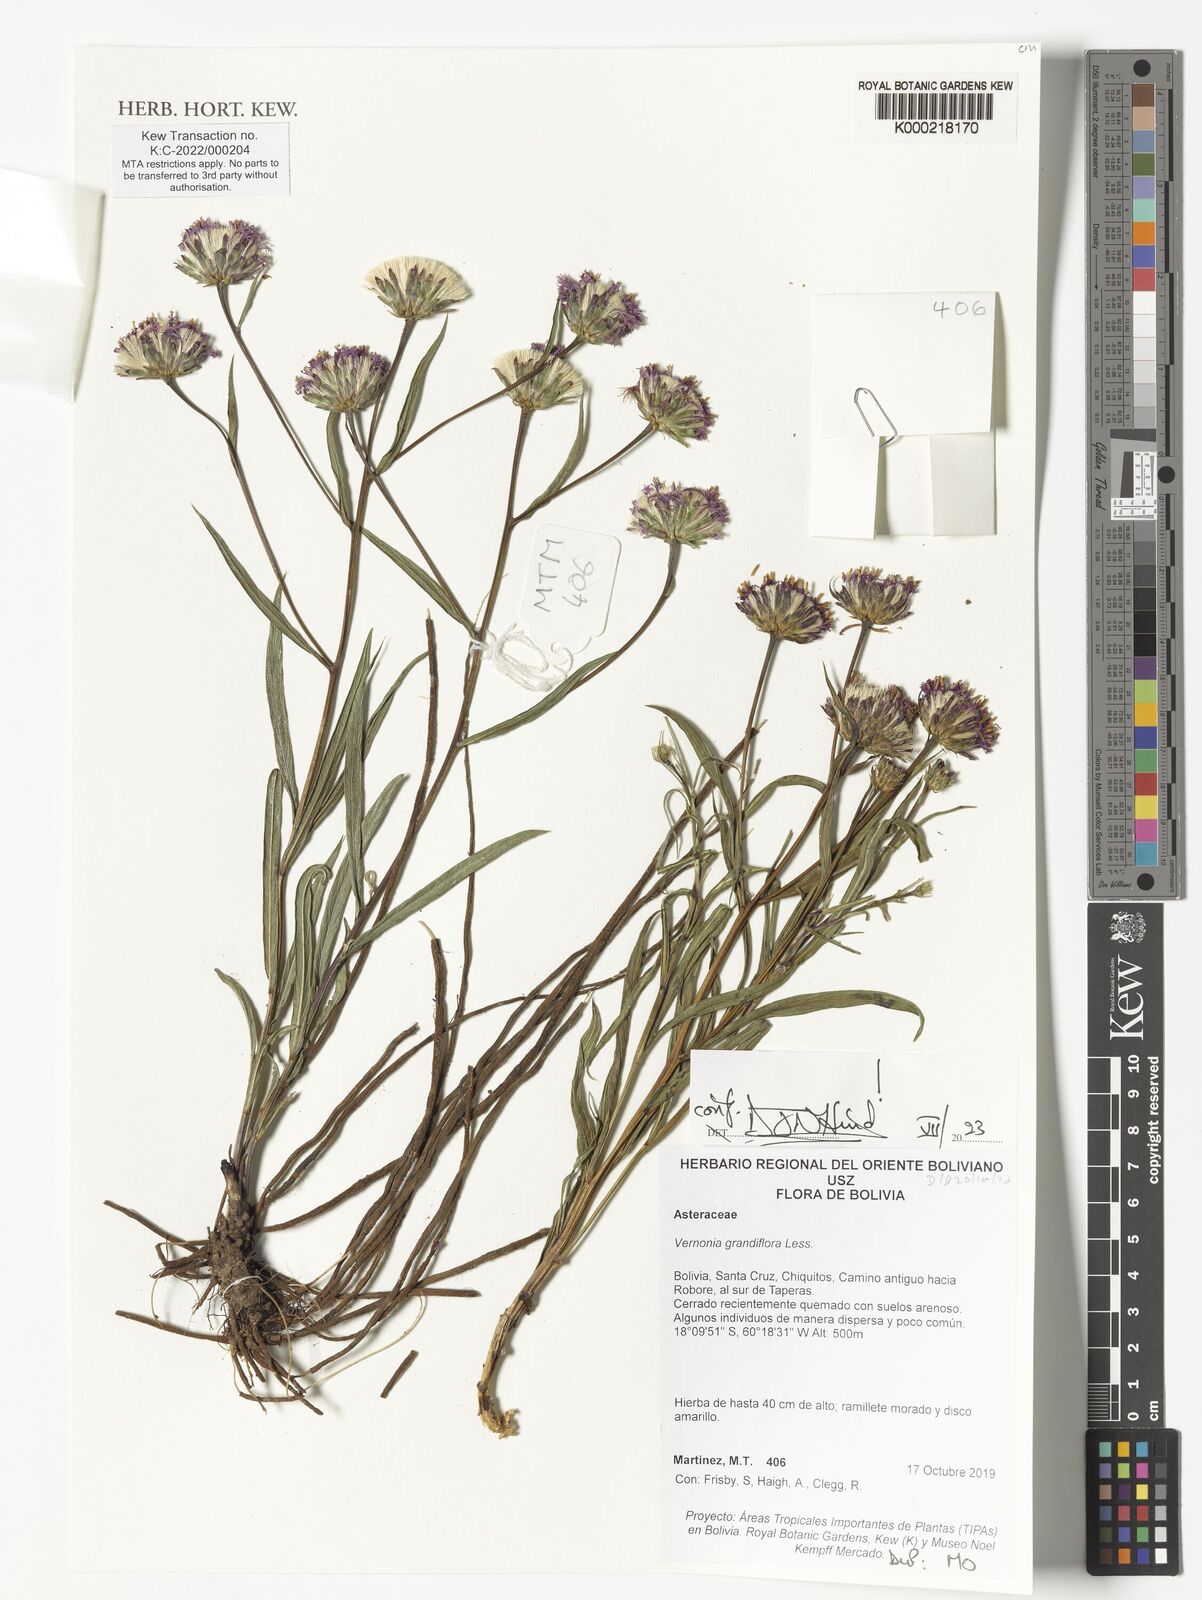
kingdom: Plantae
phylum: Tracheophyta
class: Magnoliopsida
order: Asterales
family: Asteraceae
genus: Lessingianthus
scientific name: Lessingianthus grandiflorus
